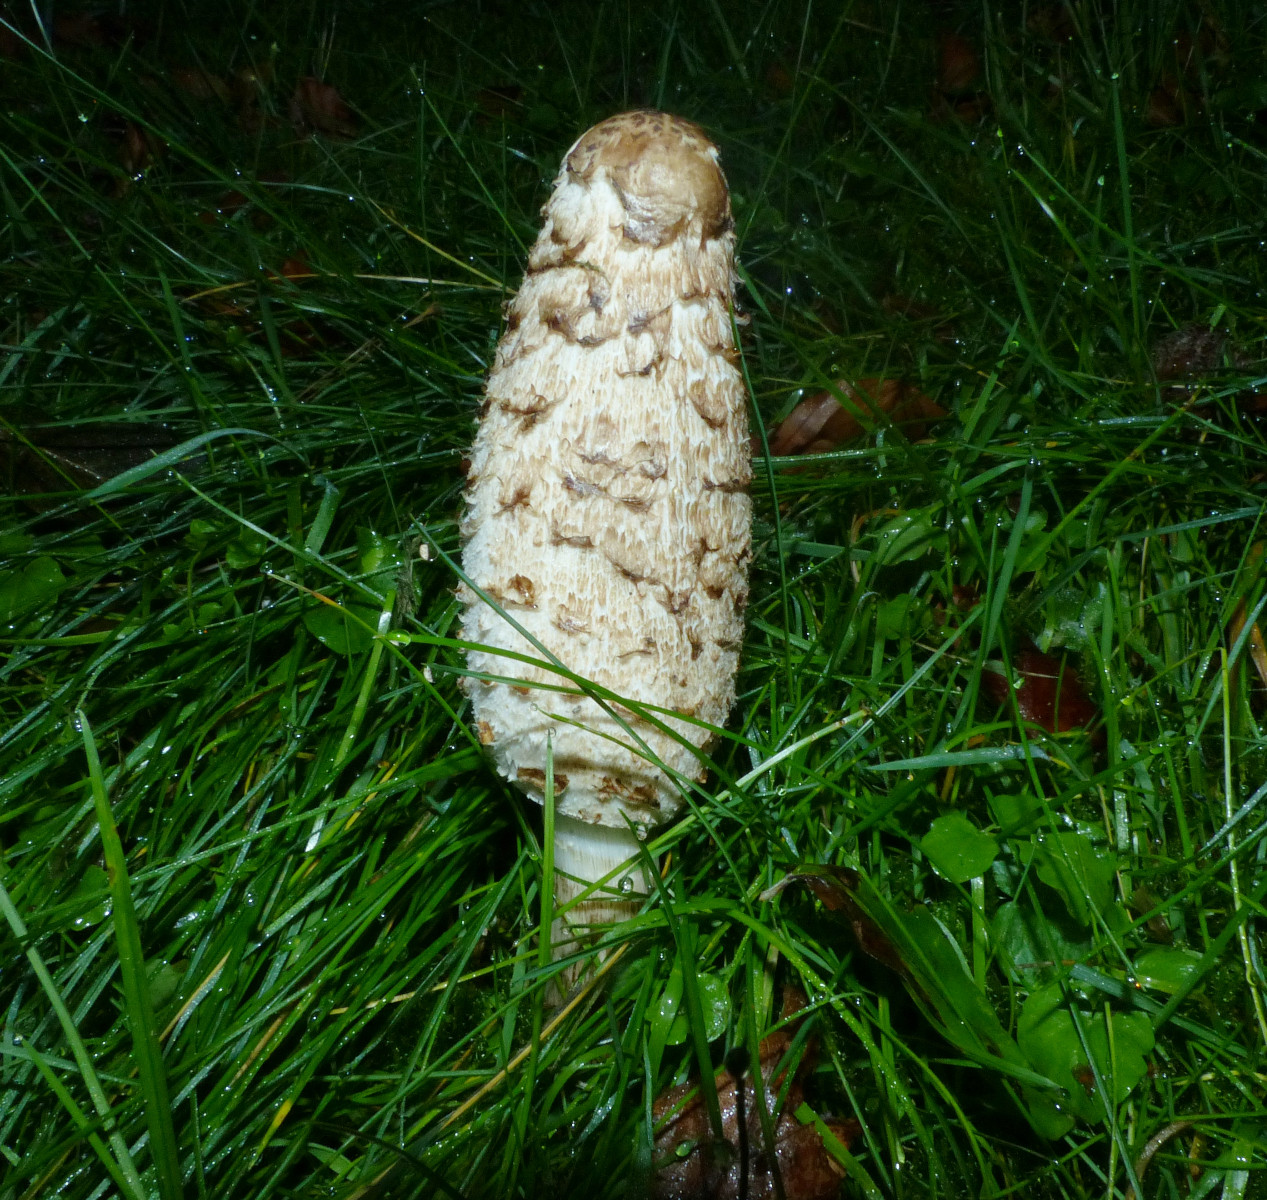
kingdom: Fungi
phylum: Basidiomycota
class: Agaricomycetes
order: Agaricales
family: Agaricaceae
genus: Coprinus
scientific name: Coprinus comatus
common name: stor parykhat
